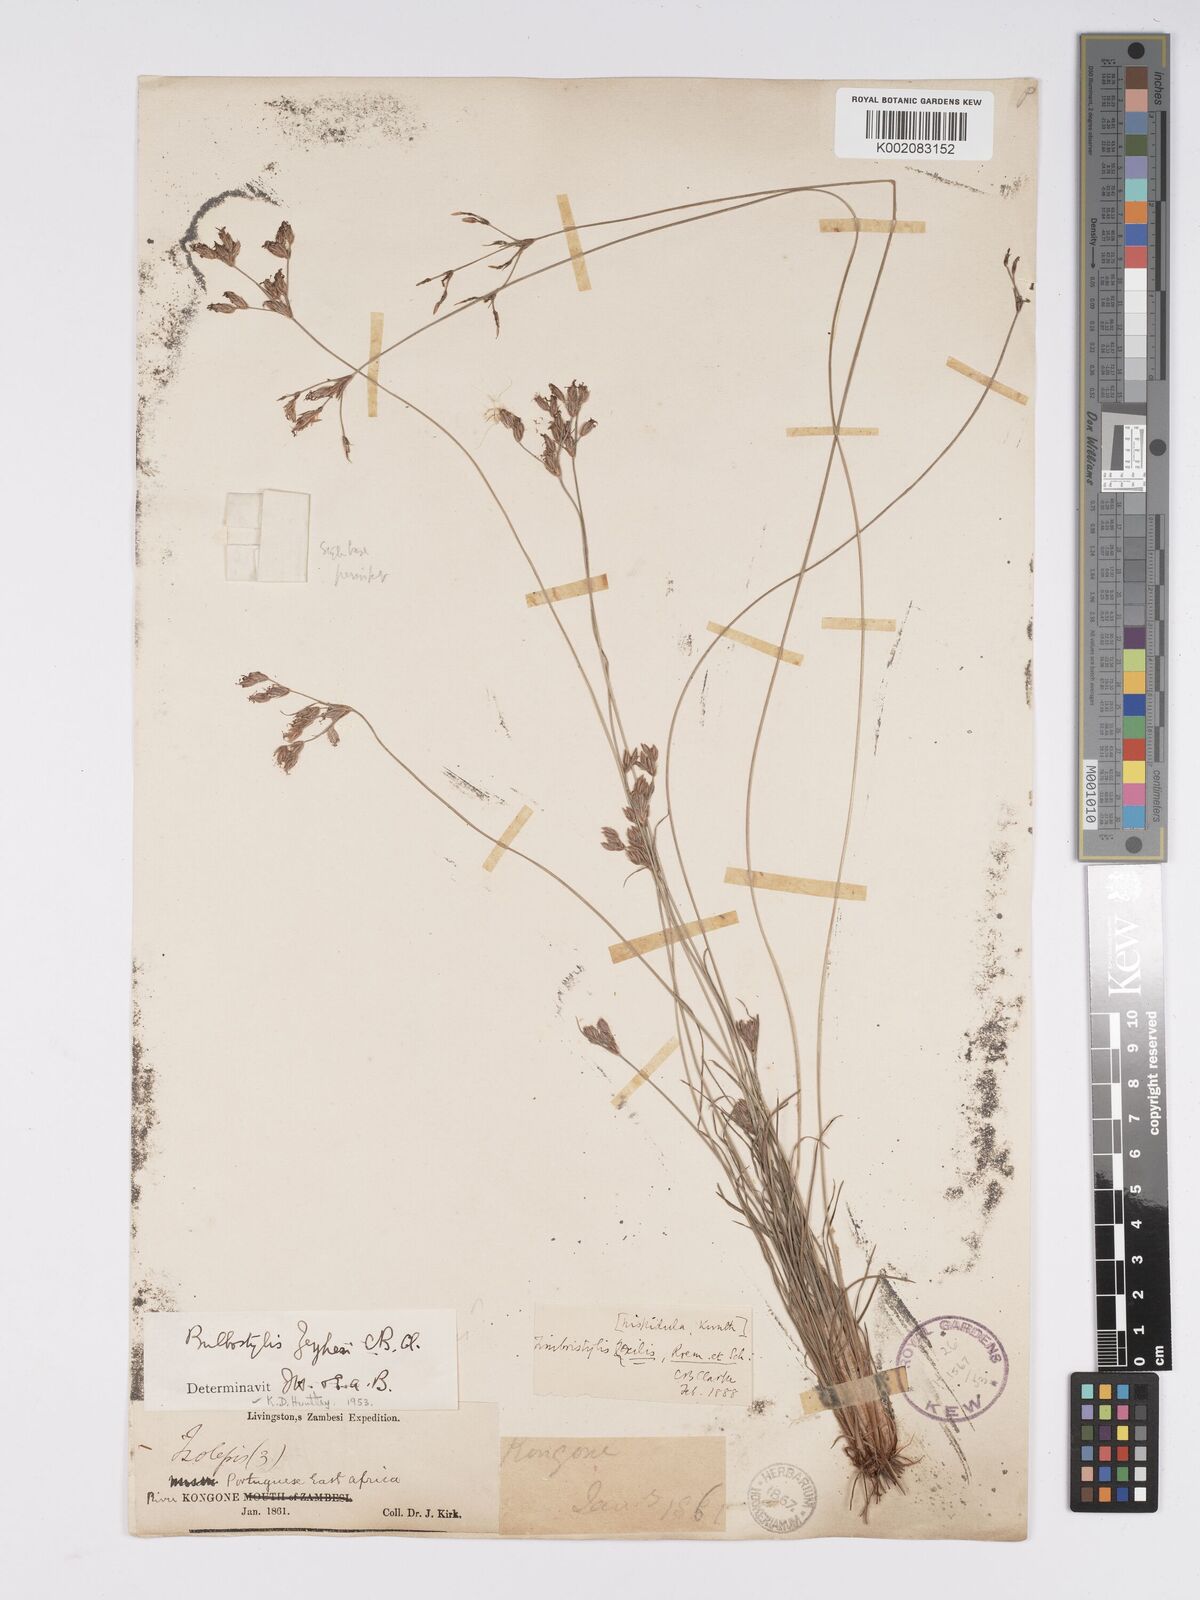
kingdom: Plantae
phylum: Tracheophyta
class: Liliopsida
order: Poales
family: Cyperaceae
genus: Bulbostylis
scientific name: Bulbostylis contexta
